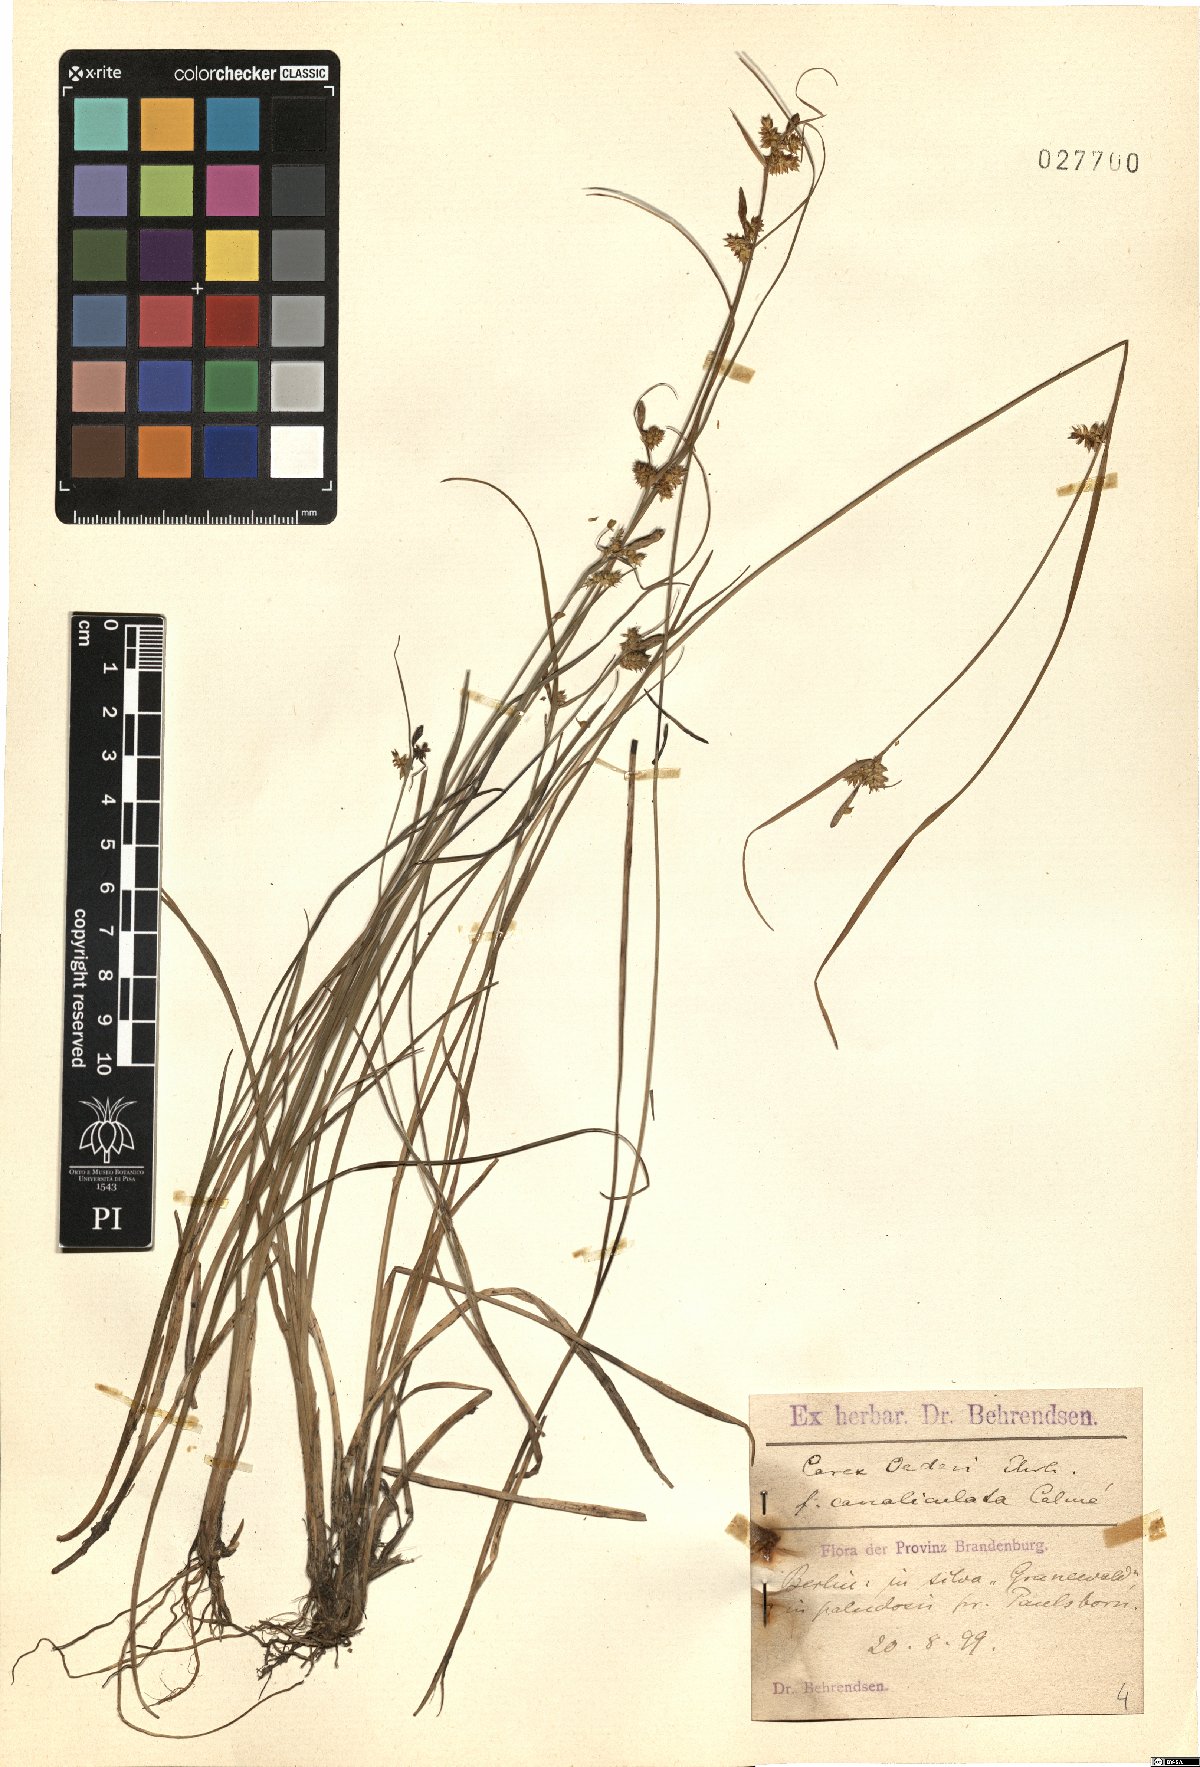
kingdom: Plantae
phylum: Tracheophyta
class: Liliopsida
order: Poales
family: Cyperaceae
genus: Carex
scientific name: Carex oederi
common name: Common & small-fruited yellow-sedge
